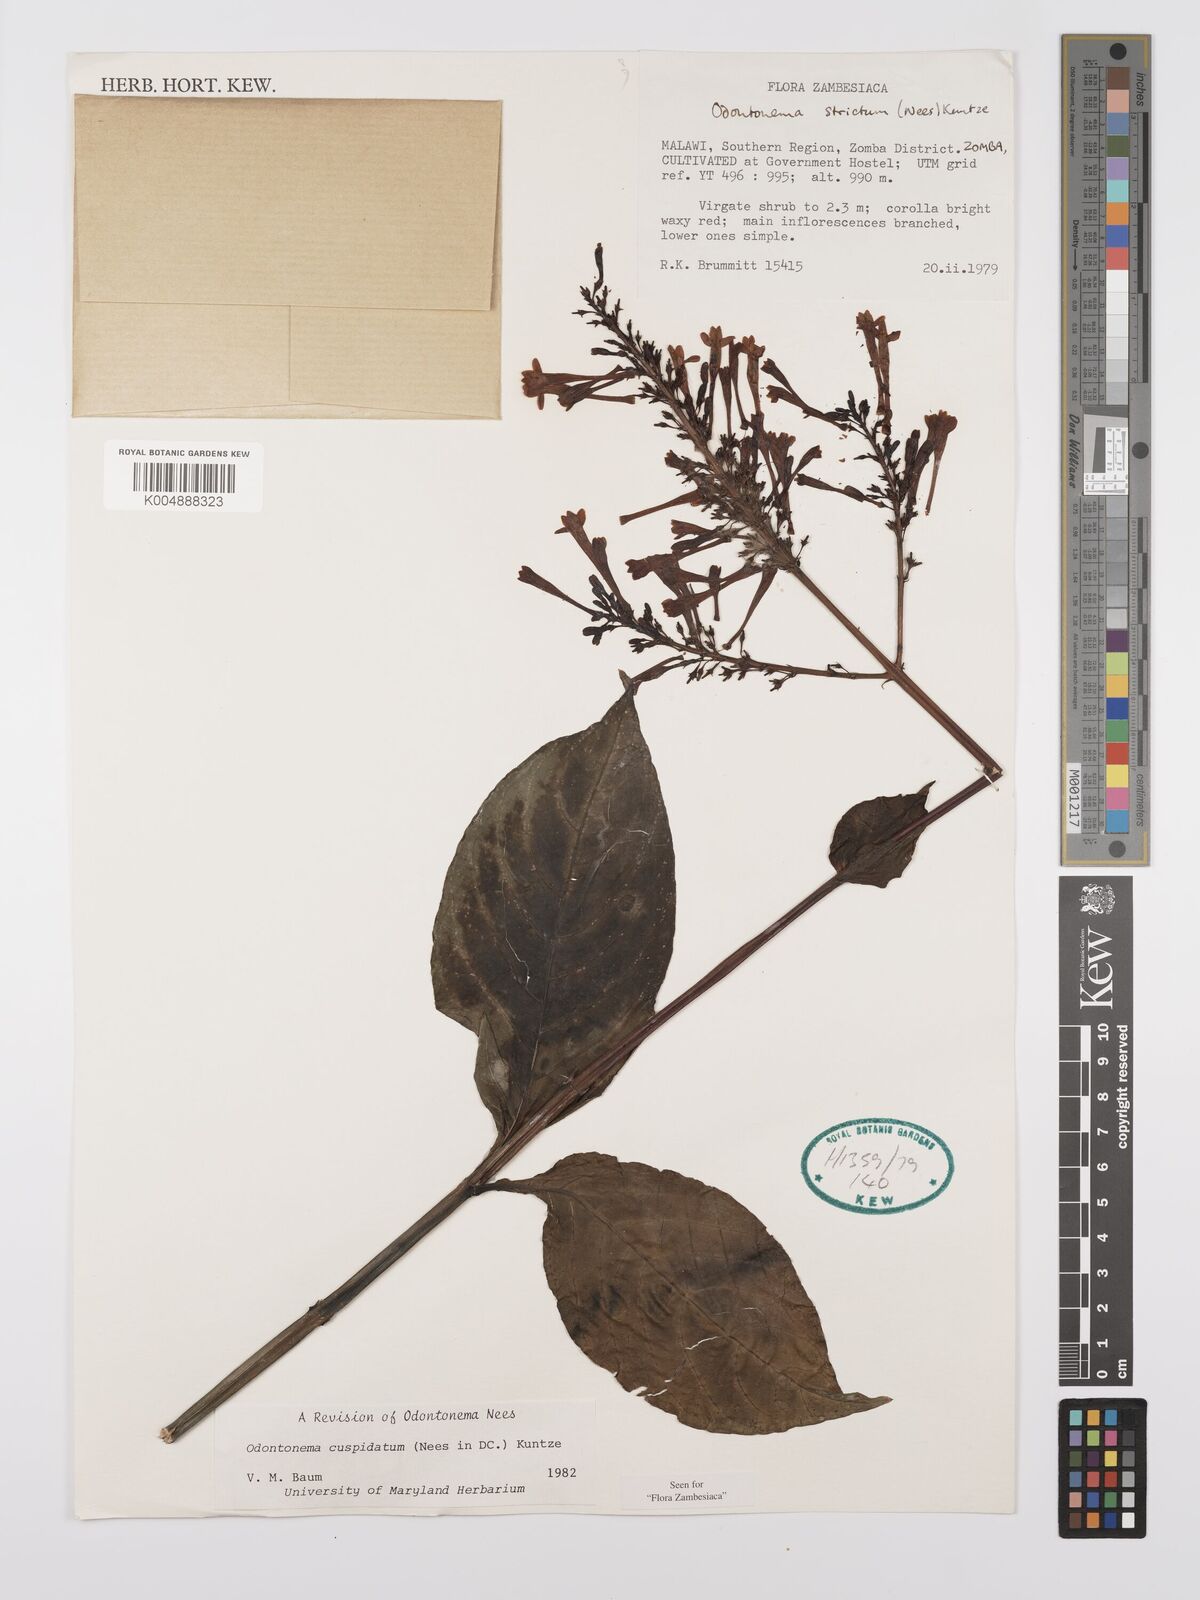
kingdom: Plantae
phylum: Tracheophyta
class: Magnoliopsida
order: Lamiales
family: Acanthaceae
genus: Odontonema
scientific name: Odontonema cuspidatum
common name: Mottled toothedthread
